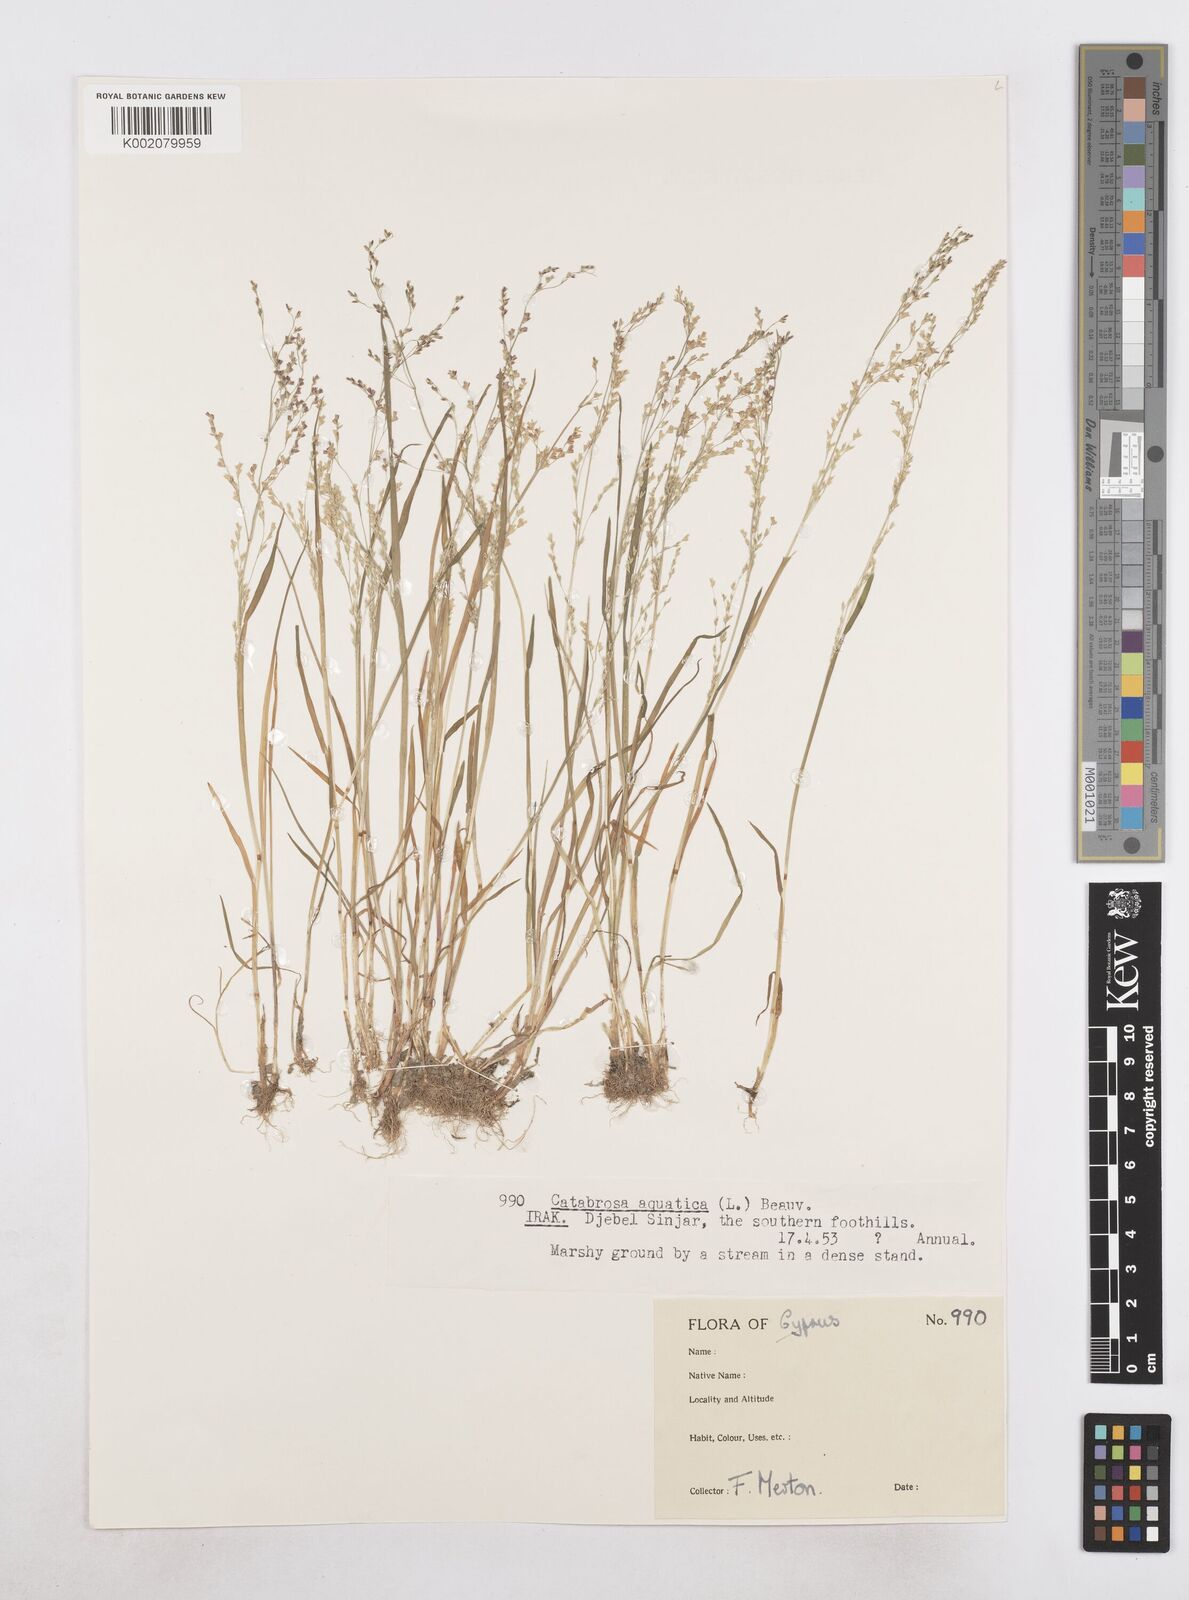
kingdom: Plantae
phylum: Tracheophyta
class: Liliopsida
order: Poales
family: Poaceae
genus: Catabrosa
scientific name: Catabrosa aquatica
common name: Whorl-grass
